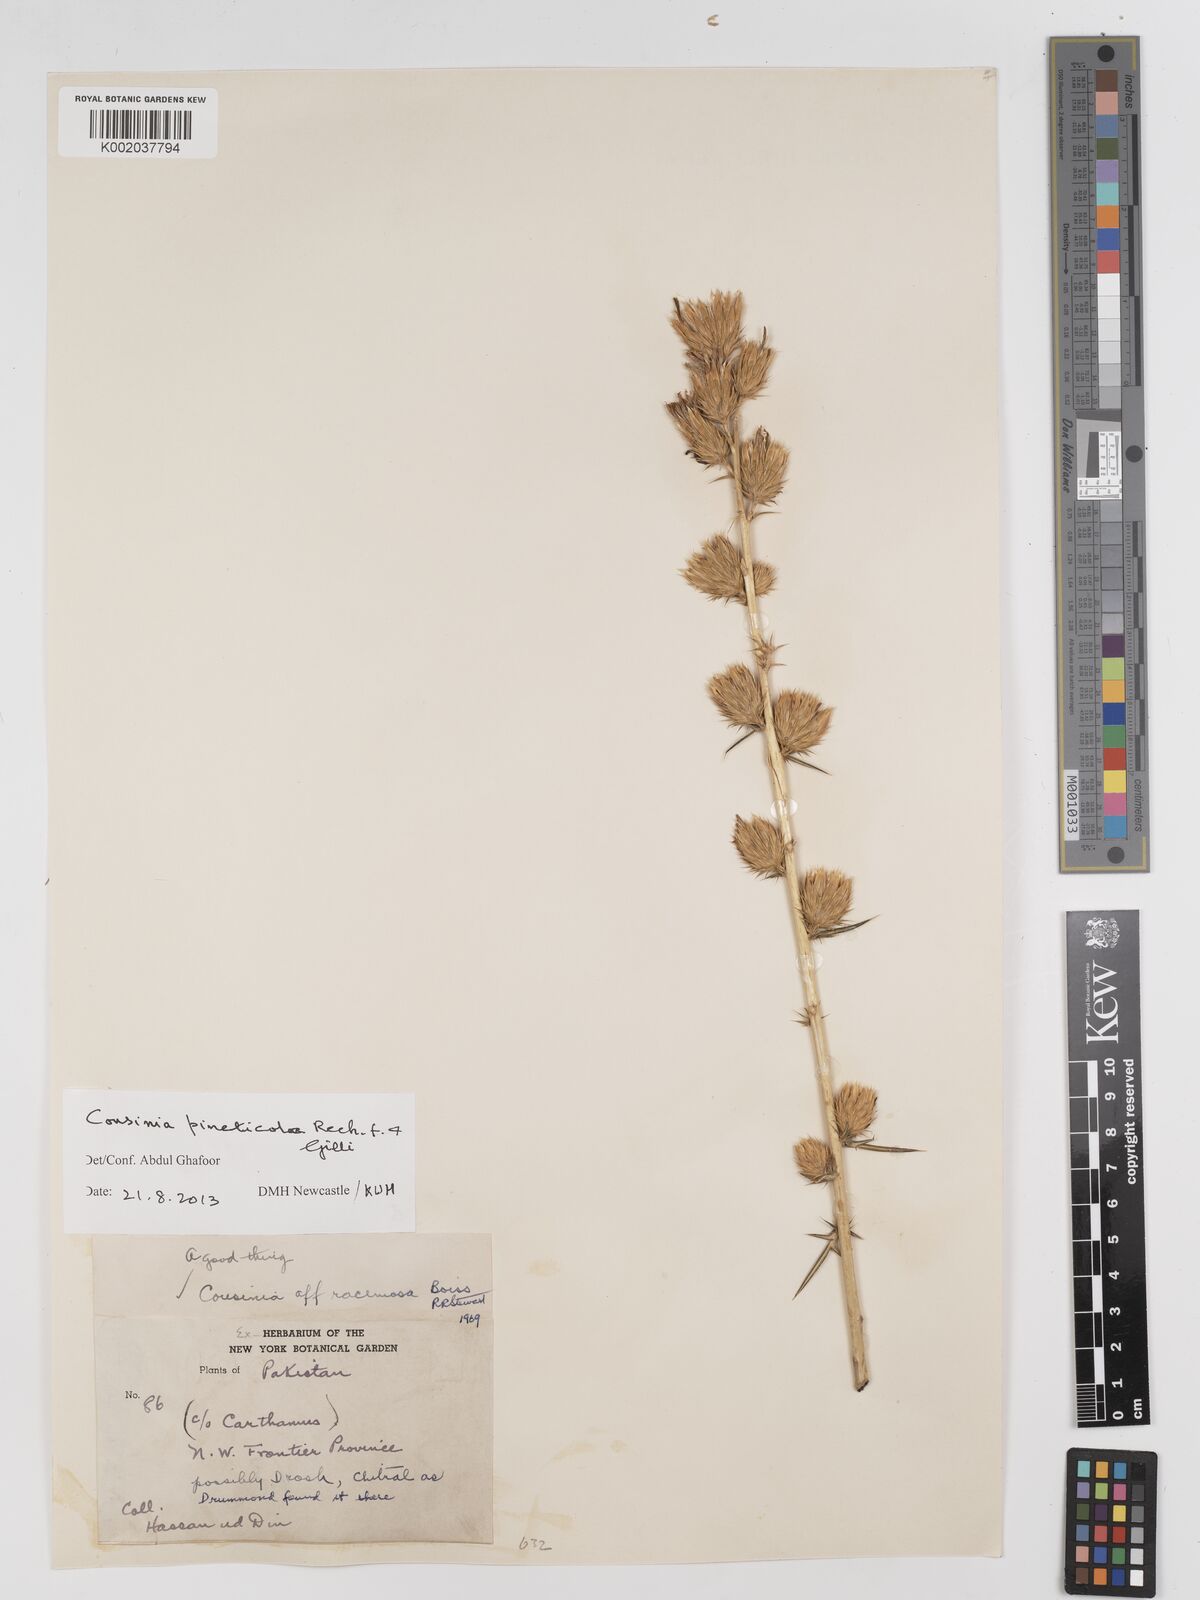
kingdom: Plantae
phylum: Tracheophyta
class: Magnoliopsida
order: Asterales
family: Asteraceae
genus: Cousinia
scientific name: Cousinia pineticola
